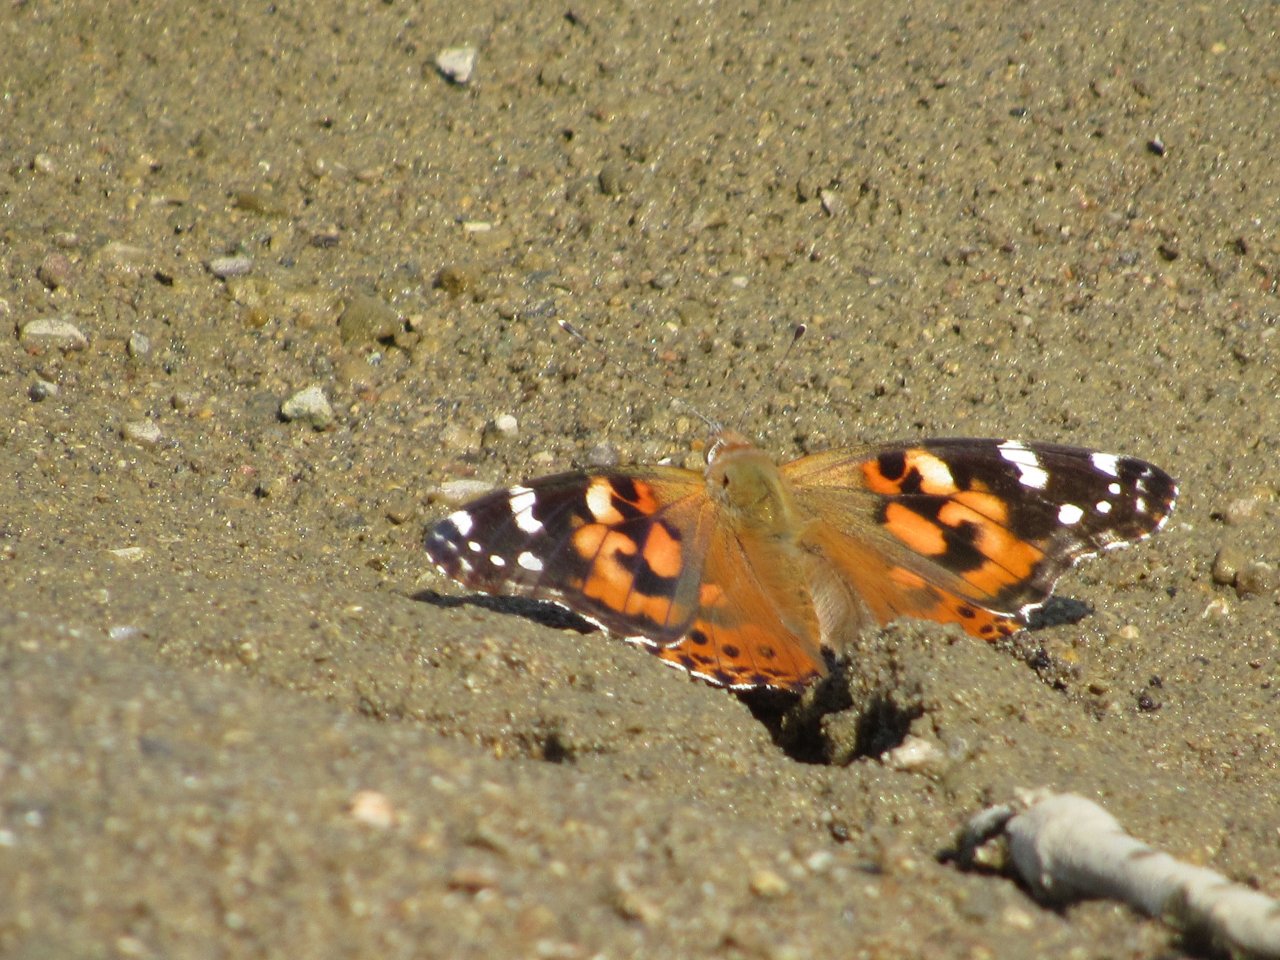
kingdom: Animalia
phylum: Arthropoda
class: Insecta
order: Lepidoptera
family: Nymphalidae
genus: Vanessa
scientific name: Vanessa cardui
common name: Painted Lady
